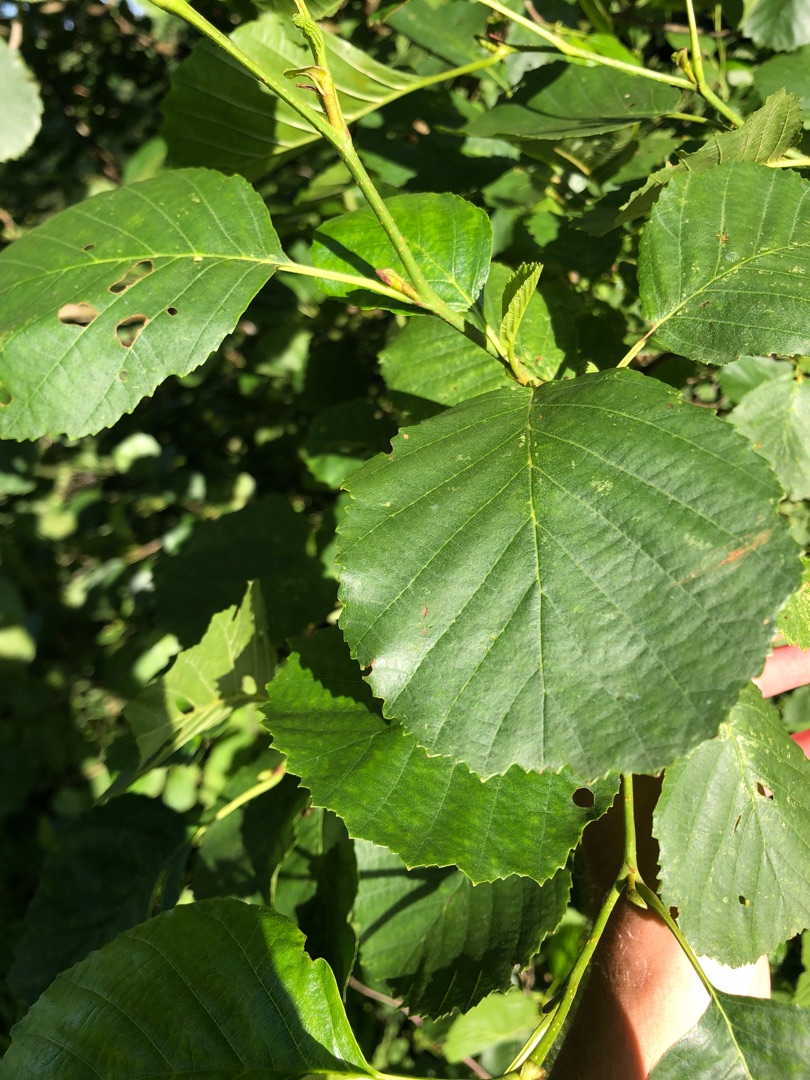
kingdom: Plantae
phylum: Tracheophyta
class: Magnoliopsida
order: Fagales
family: Betulaceae
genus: Alnus
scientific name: Alnus glutinosa
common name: Rød-el
